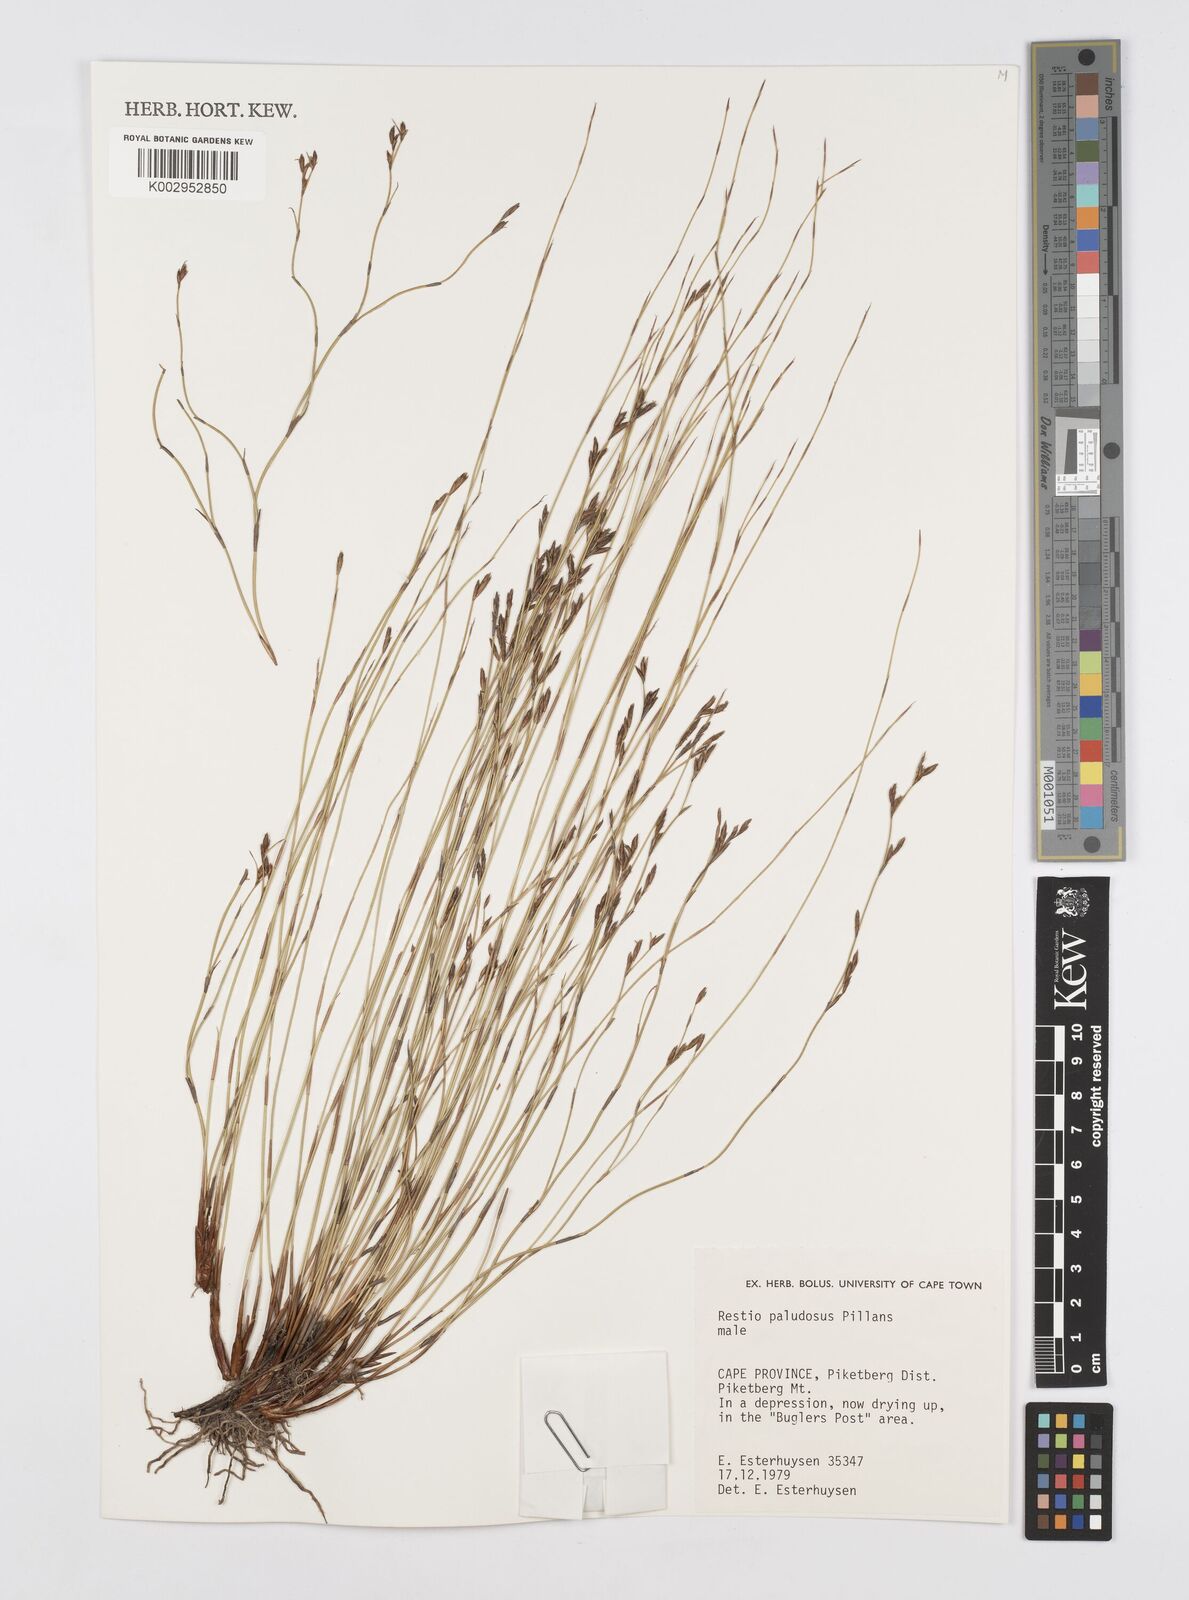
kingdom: Plantae
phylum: Tracheophyta
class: Liliopsida
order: Poales
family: Restionaceae
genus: Restio
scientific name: Restio paludosus
